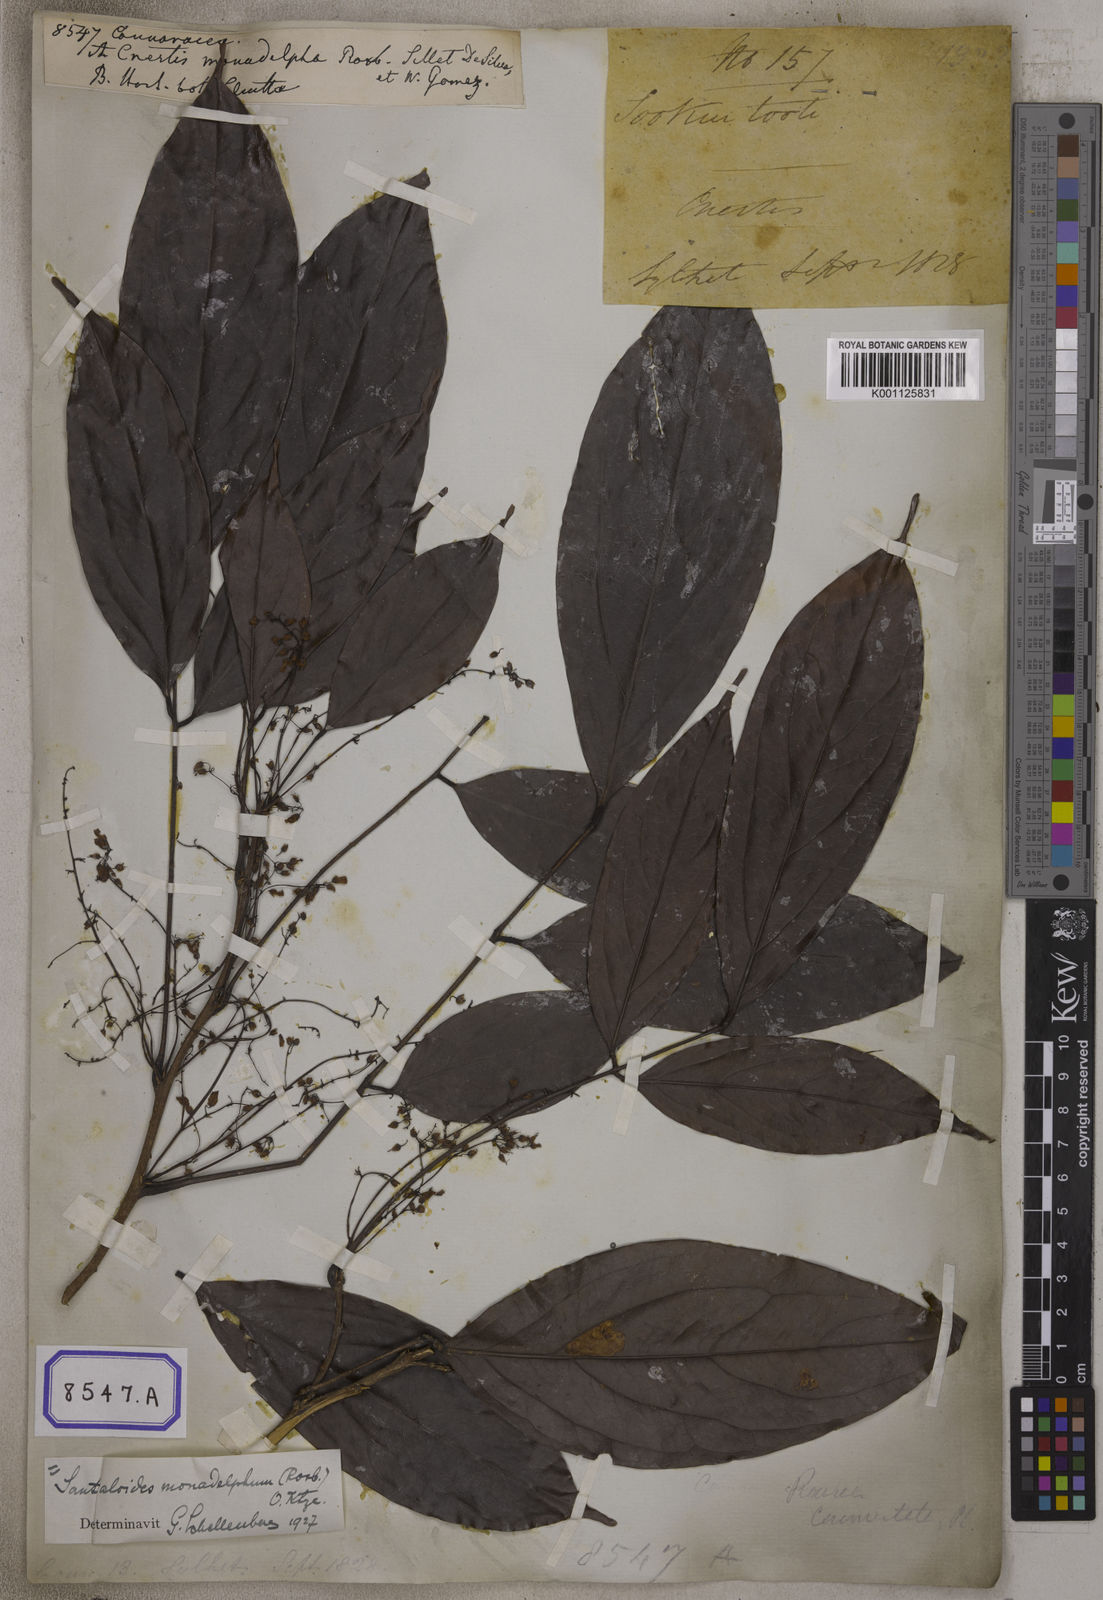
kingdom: Plantae
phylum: Tracheophyta
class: Magnoliopsida
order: Oxalidales
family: Connaraceae
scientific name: Connaraceae
